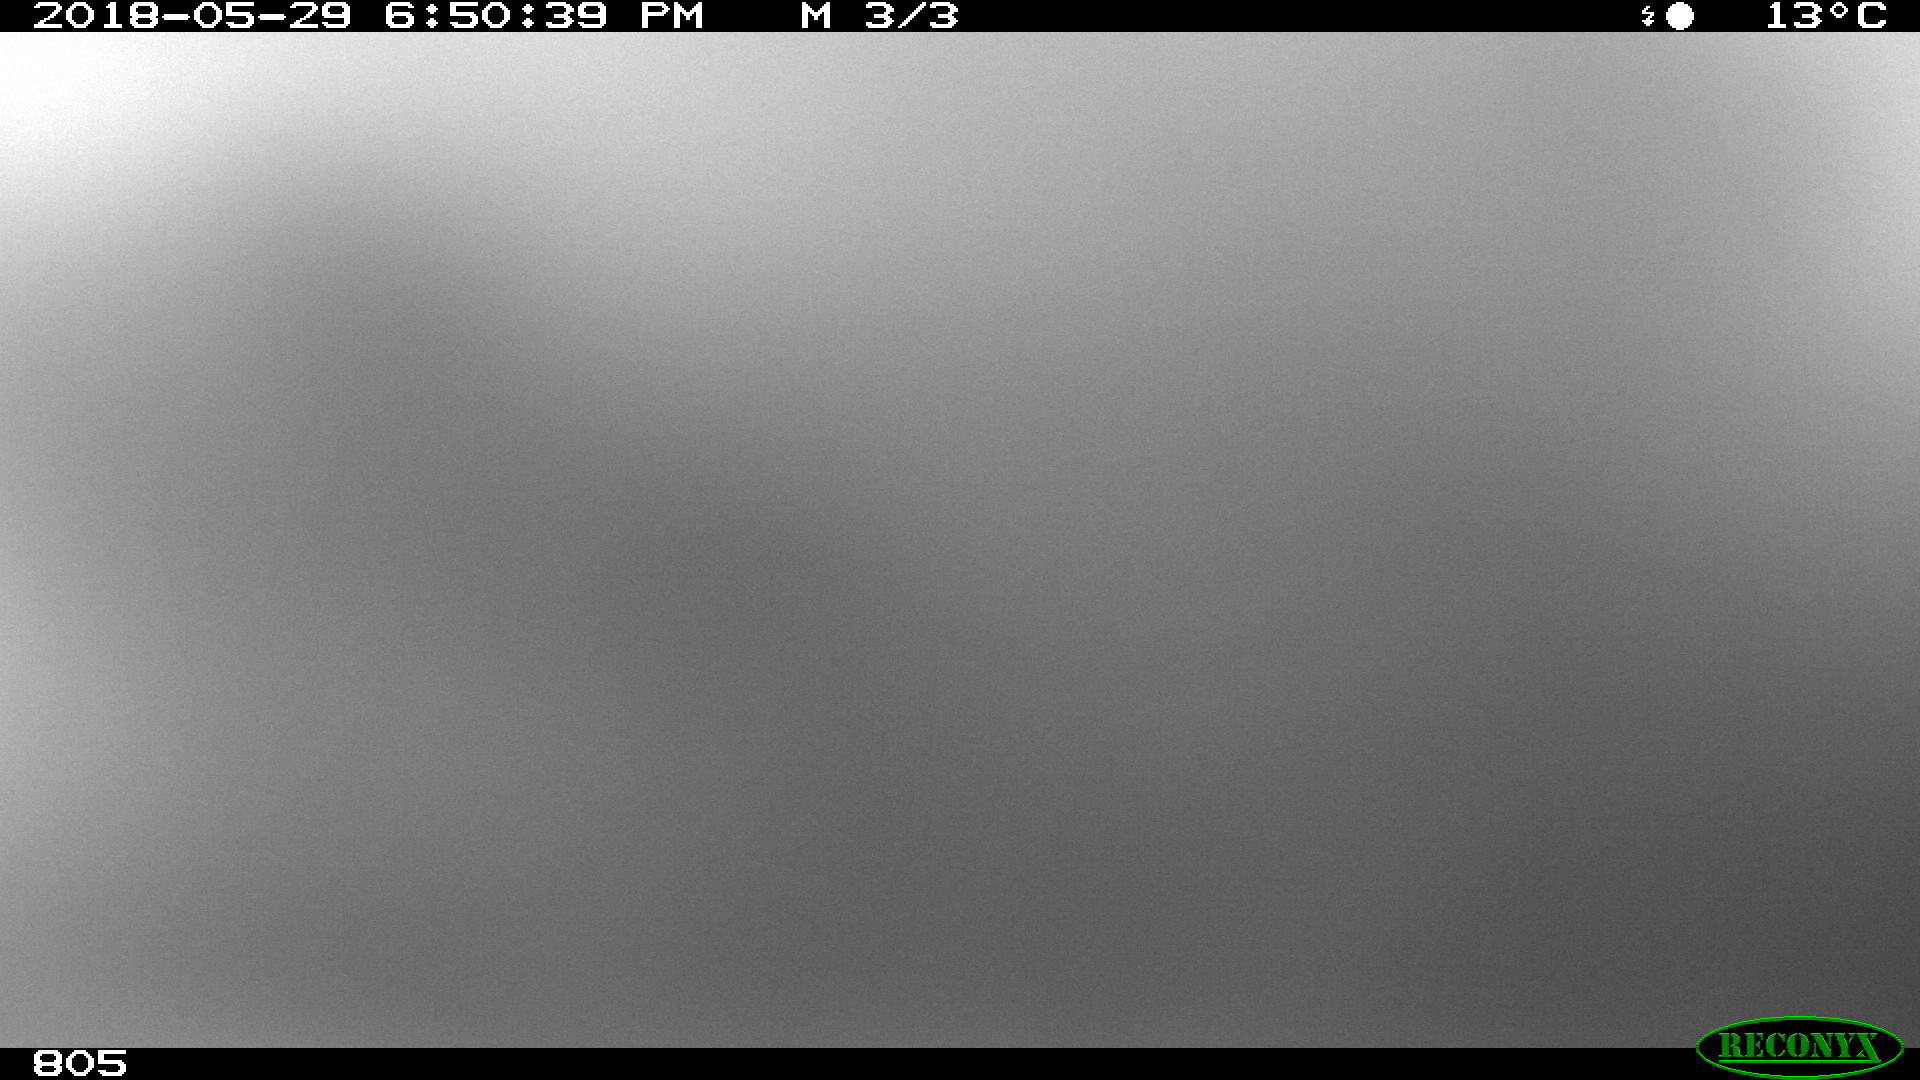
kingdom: Animalia
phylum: Chordata
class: Mammalia
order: Artiodactyla
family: Bovidae
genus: Bos
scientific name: Bos taurus
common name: Domesticated cattle
